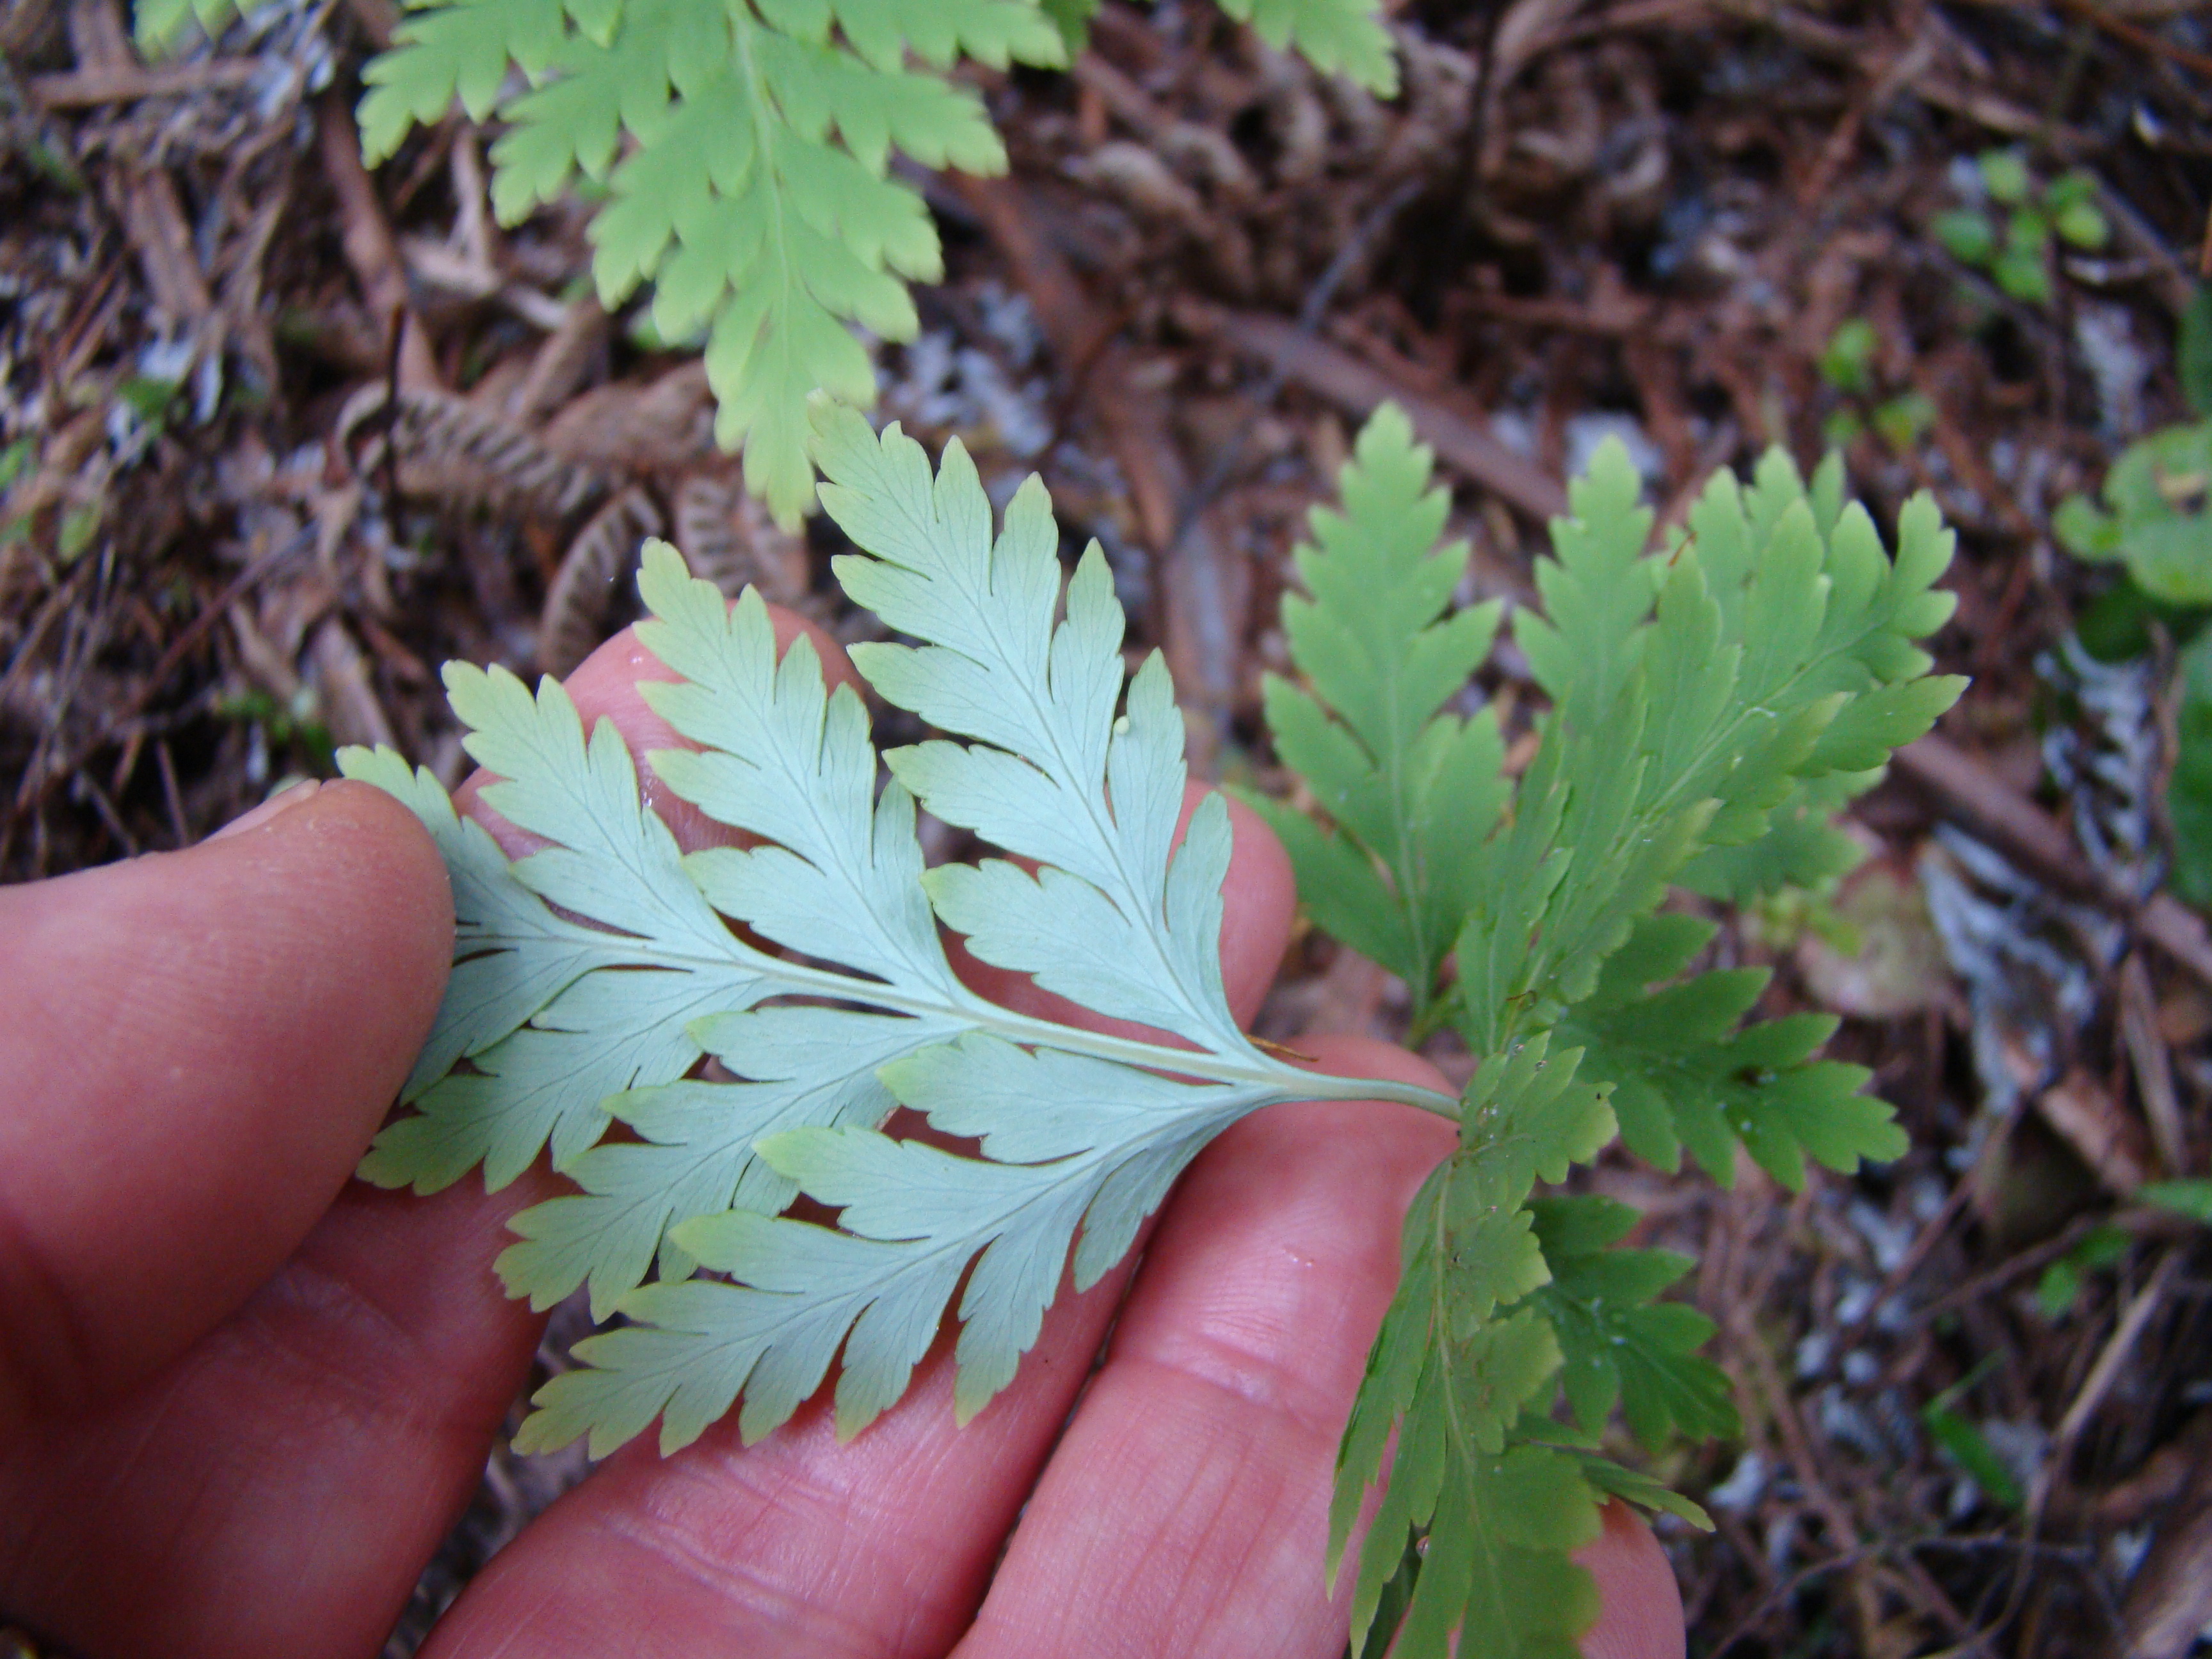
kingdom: Plantae
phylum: Tracheophyta
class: Polypodiopsida
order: Cyatheales
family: Loxsomataceae
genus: Loxsoma
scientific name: Loxsoma cunninghamii
